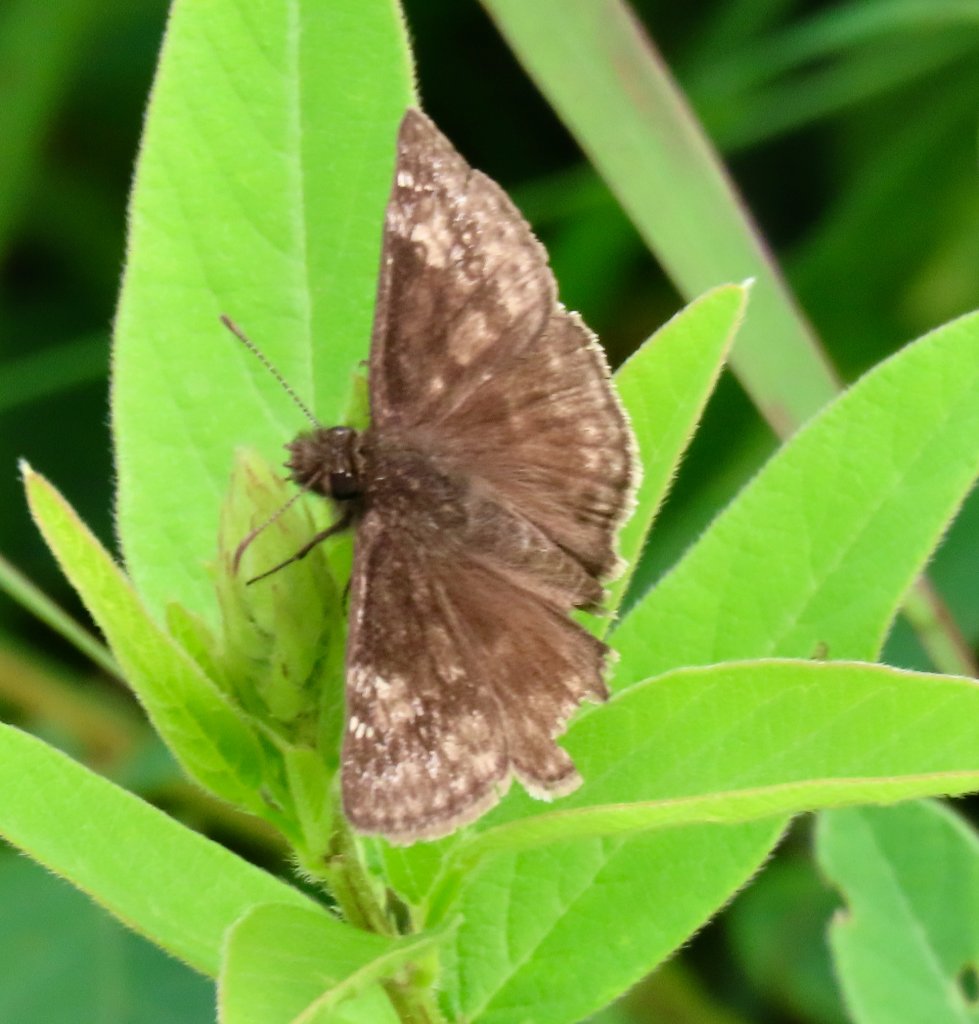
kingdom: Animalia
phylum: Arthropoda
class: Insecta
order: Lepidoptera
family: Hesperiidae
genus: Gesta
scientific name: Gesta
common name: Wild Indigo Duskywing
